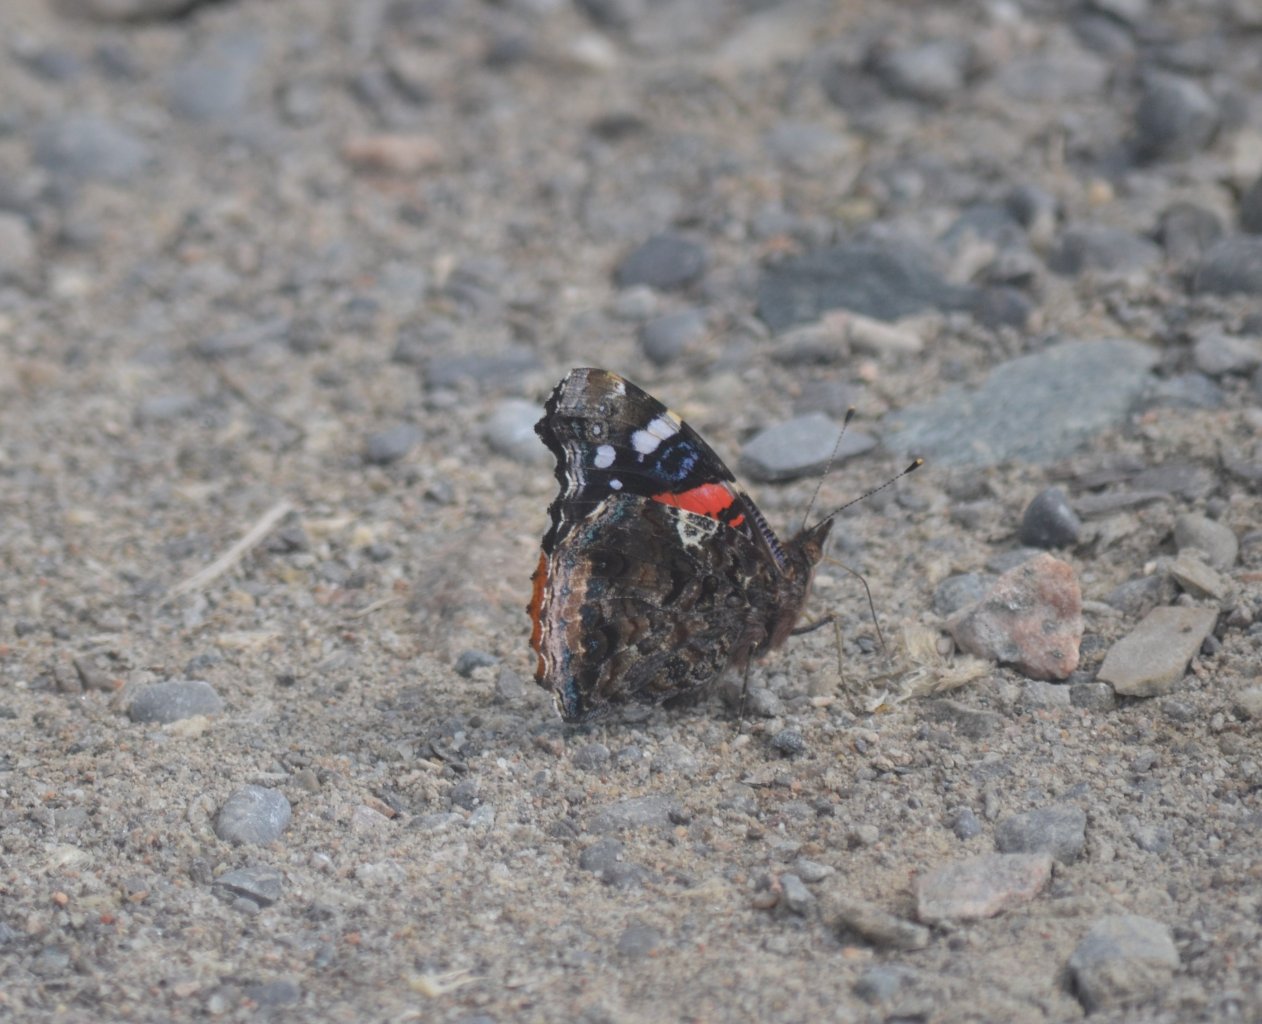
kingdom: Animalia
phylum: Arthropoda
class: Insecta
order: Lepidoptera
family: Nymphalidae
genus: Vanessa
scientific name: Vanessa atalanta
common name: Red Admiral
